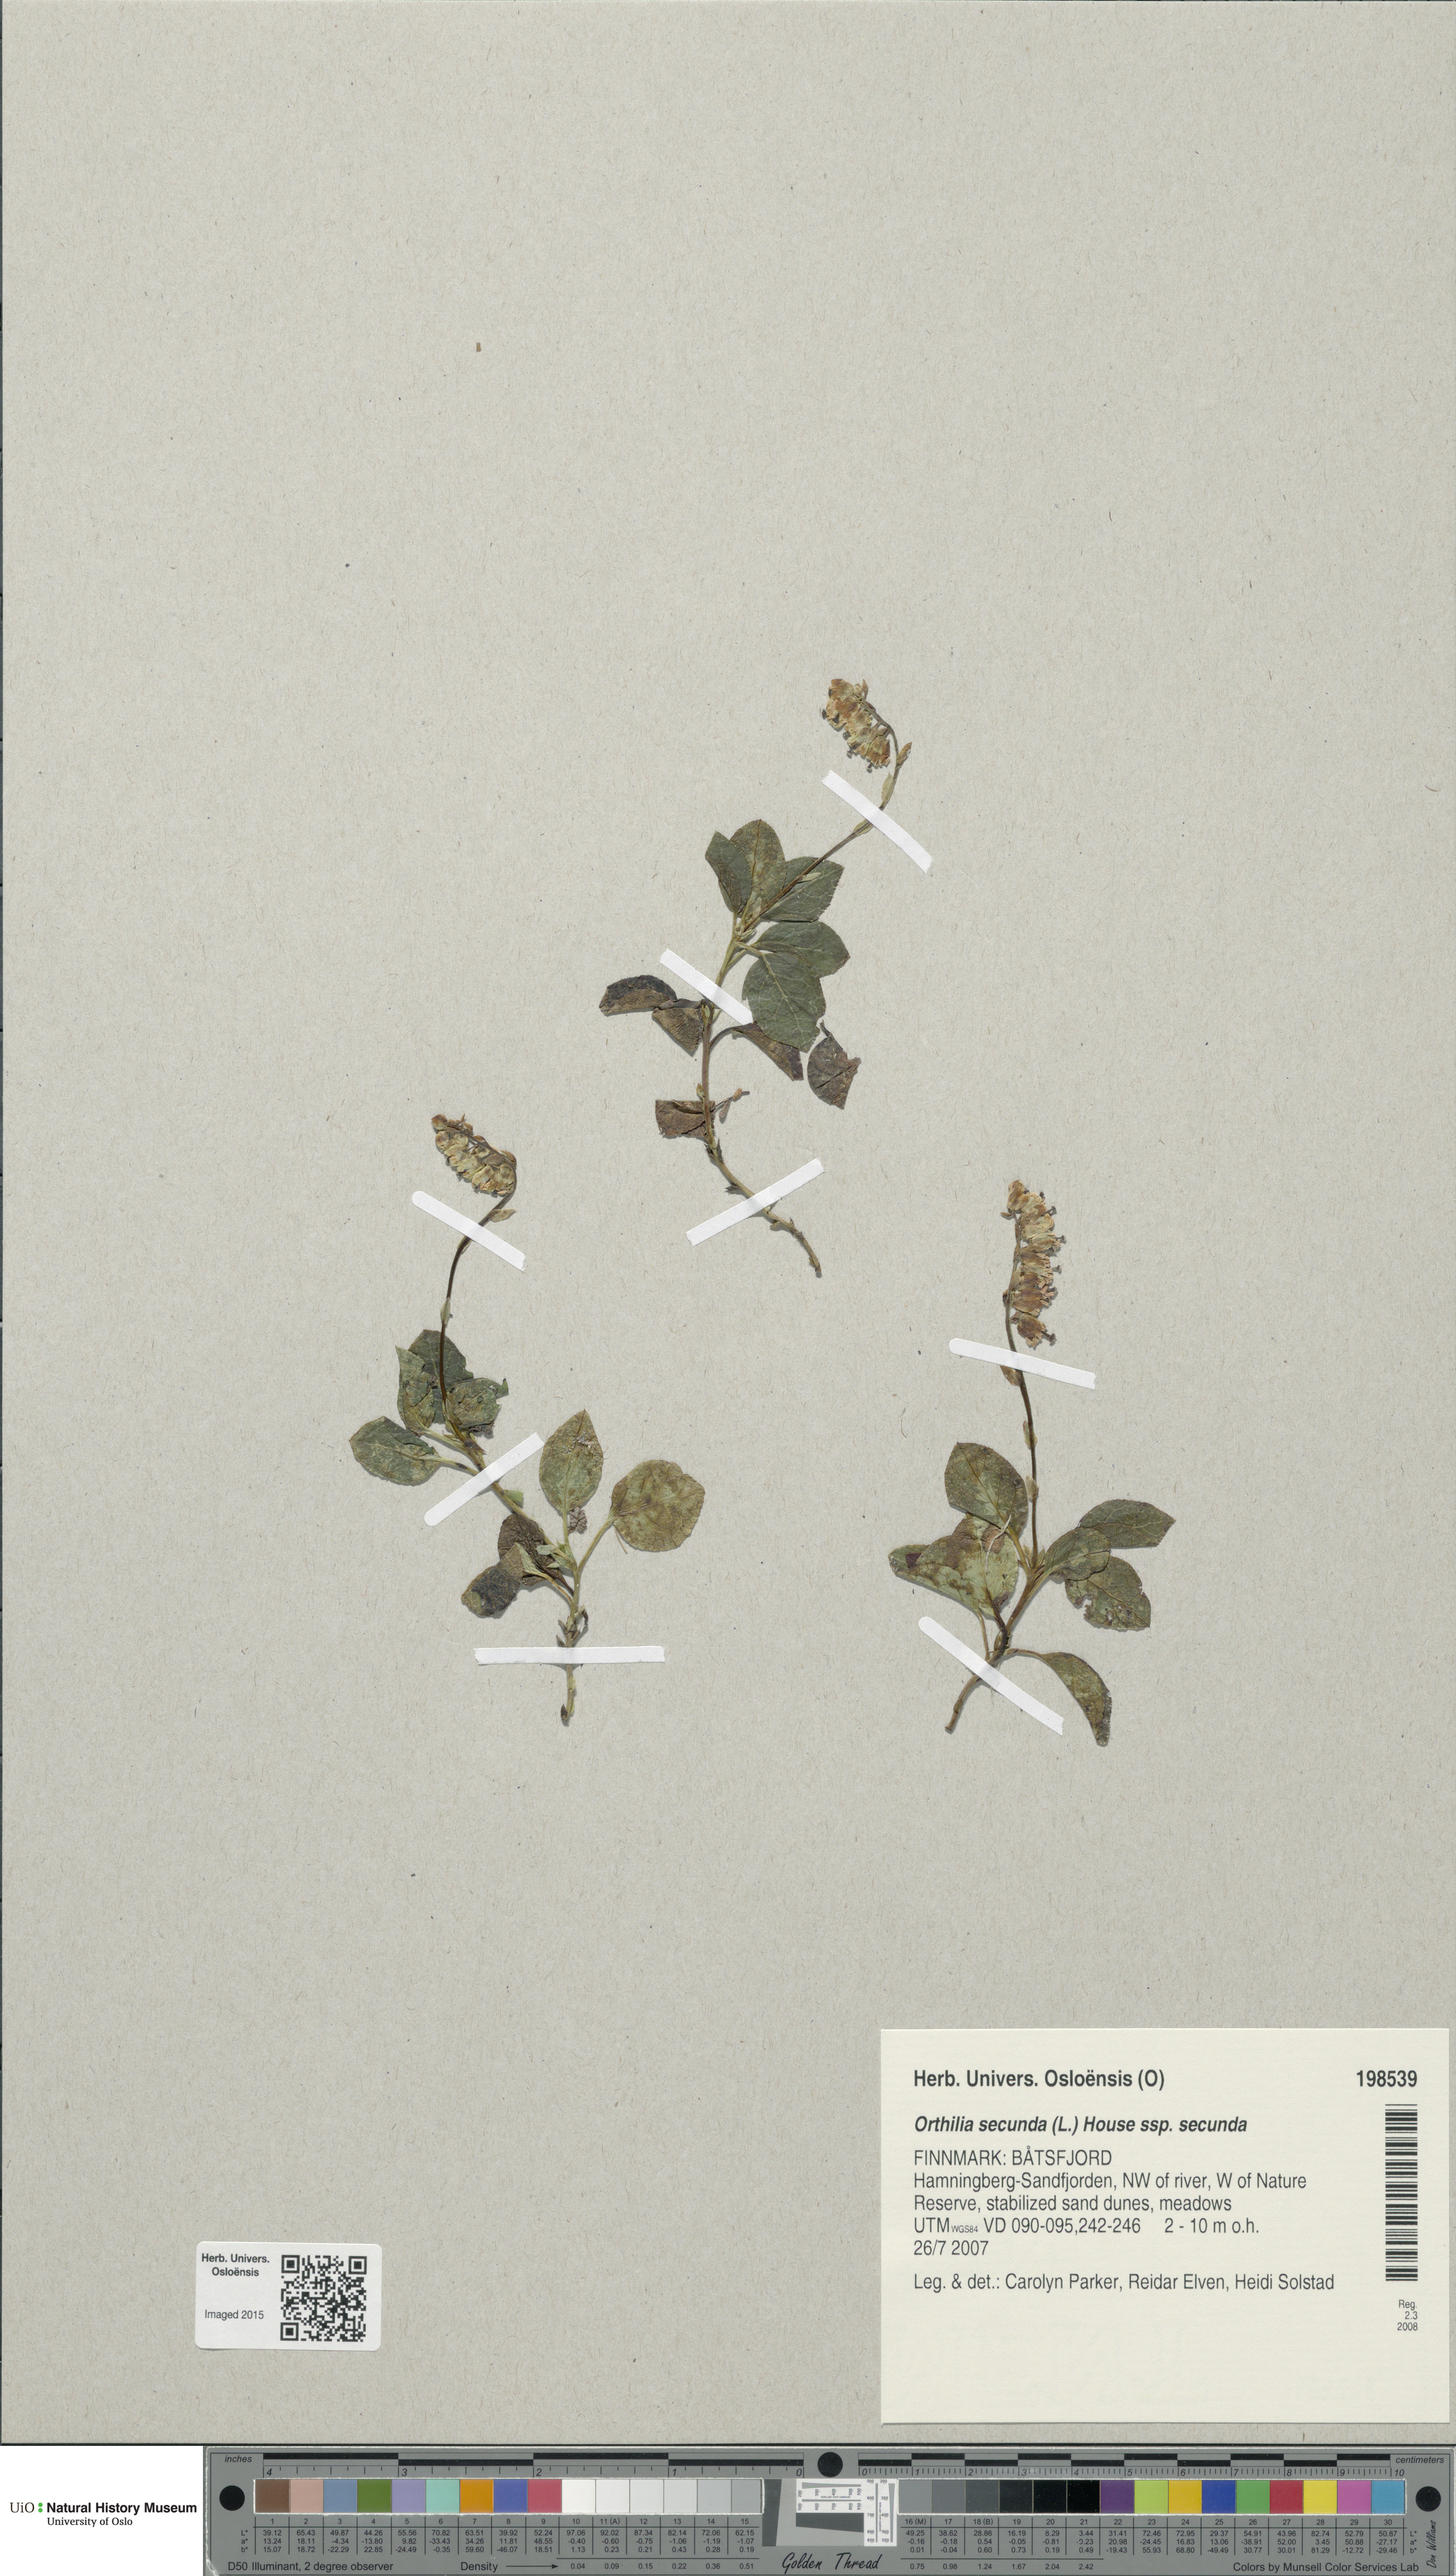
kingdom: Plantae
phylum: Tracheophyta
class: Magnoliopsida
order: Ericales
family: Ericaceae
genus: Orthilia
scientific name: Orthilia secunda
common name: One-sided orthilia
